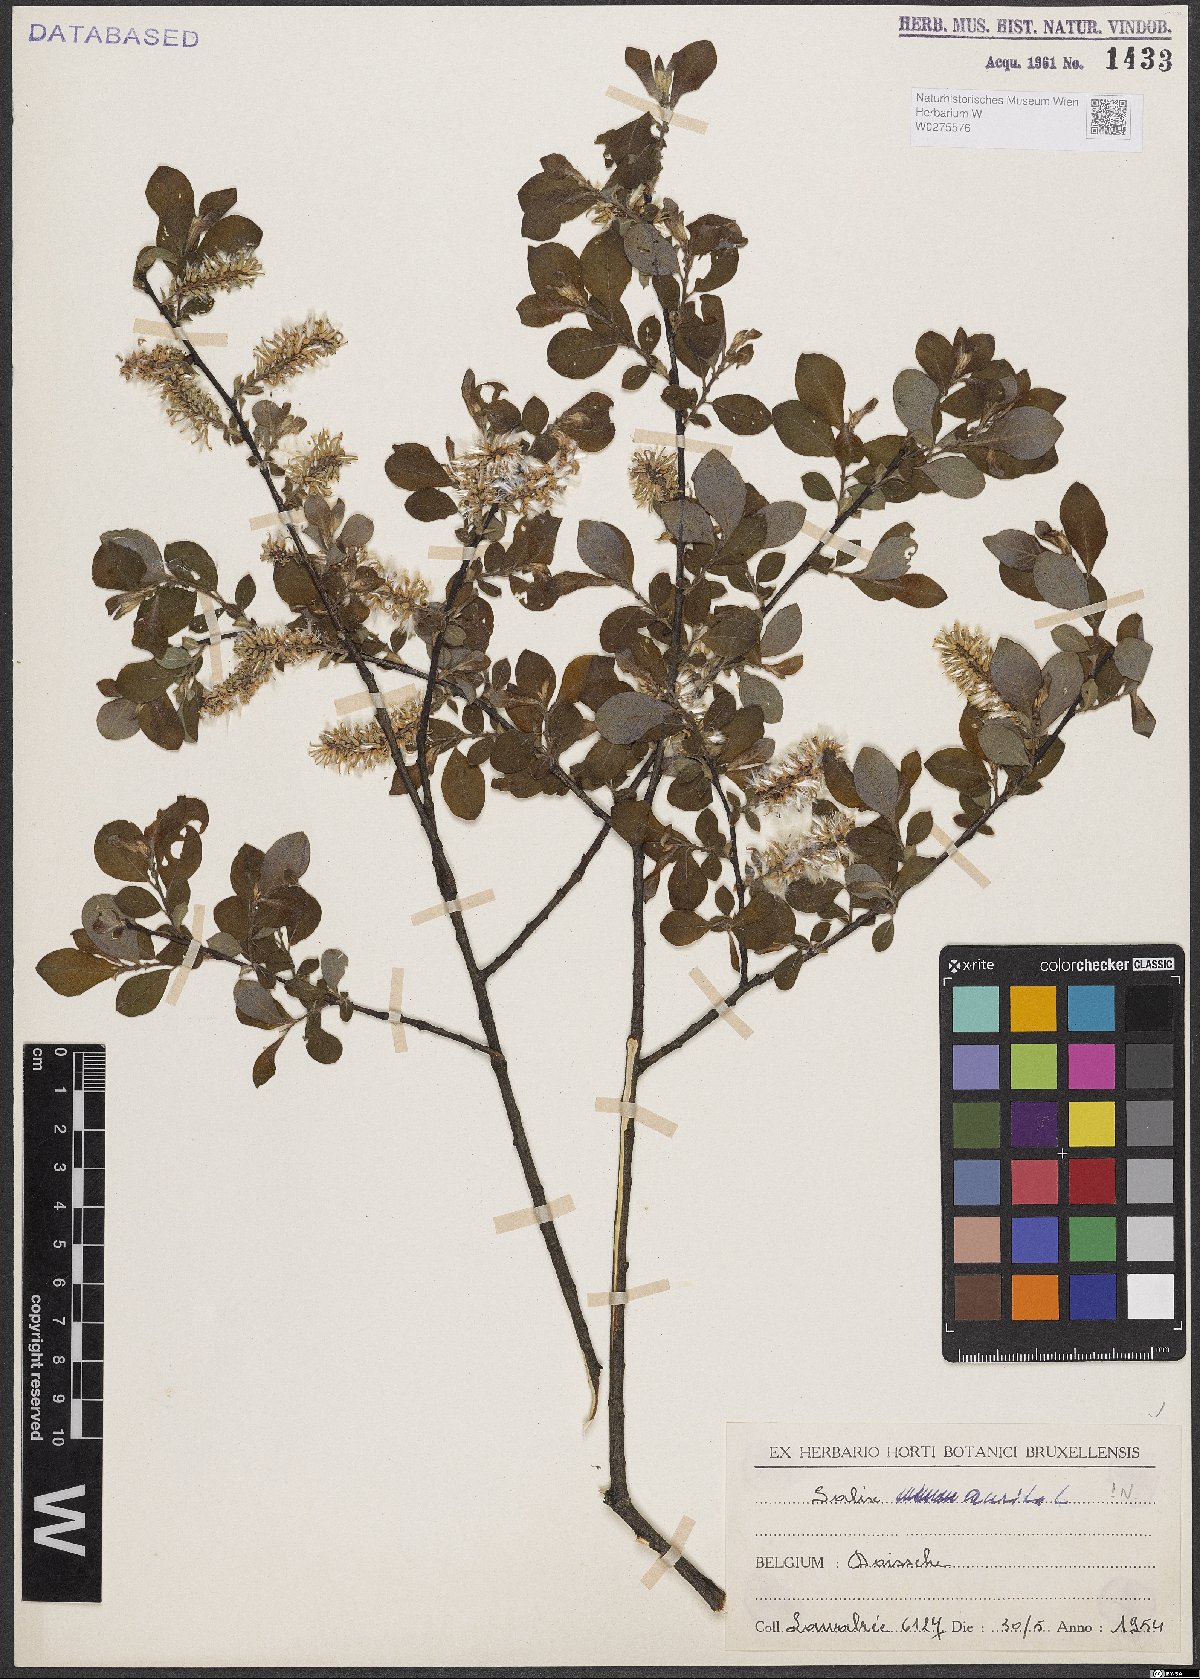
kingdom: Plantae
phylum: Tracheophyta
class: Magnoliopsida
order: Malpighiales
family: Salicaceae
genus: Salix
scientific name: Salix aurita
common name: Eared willow
